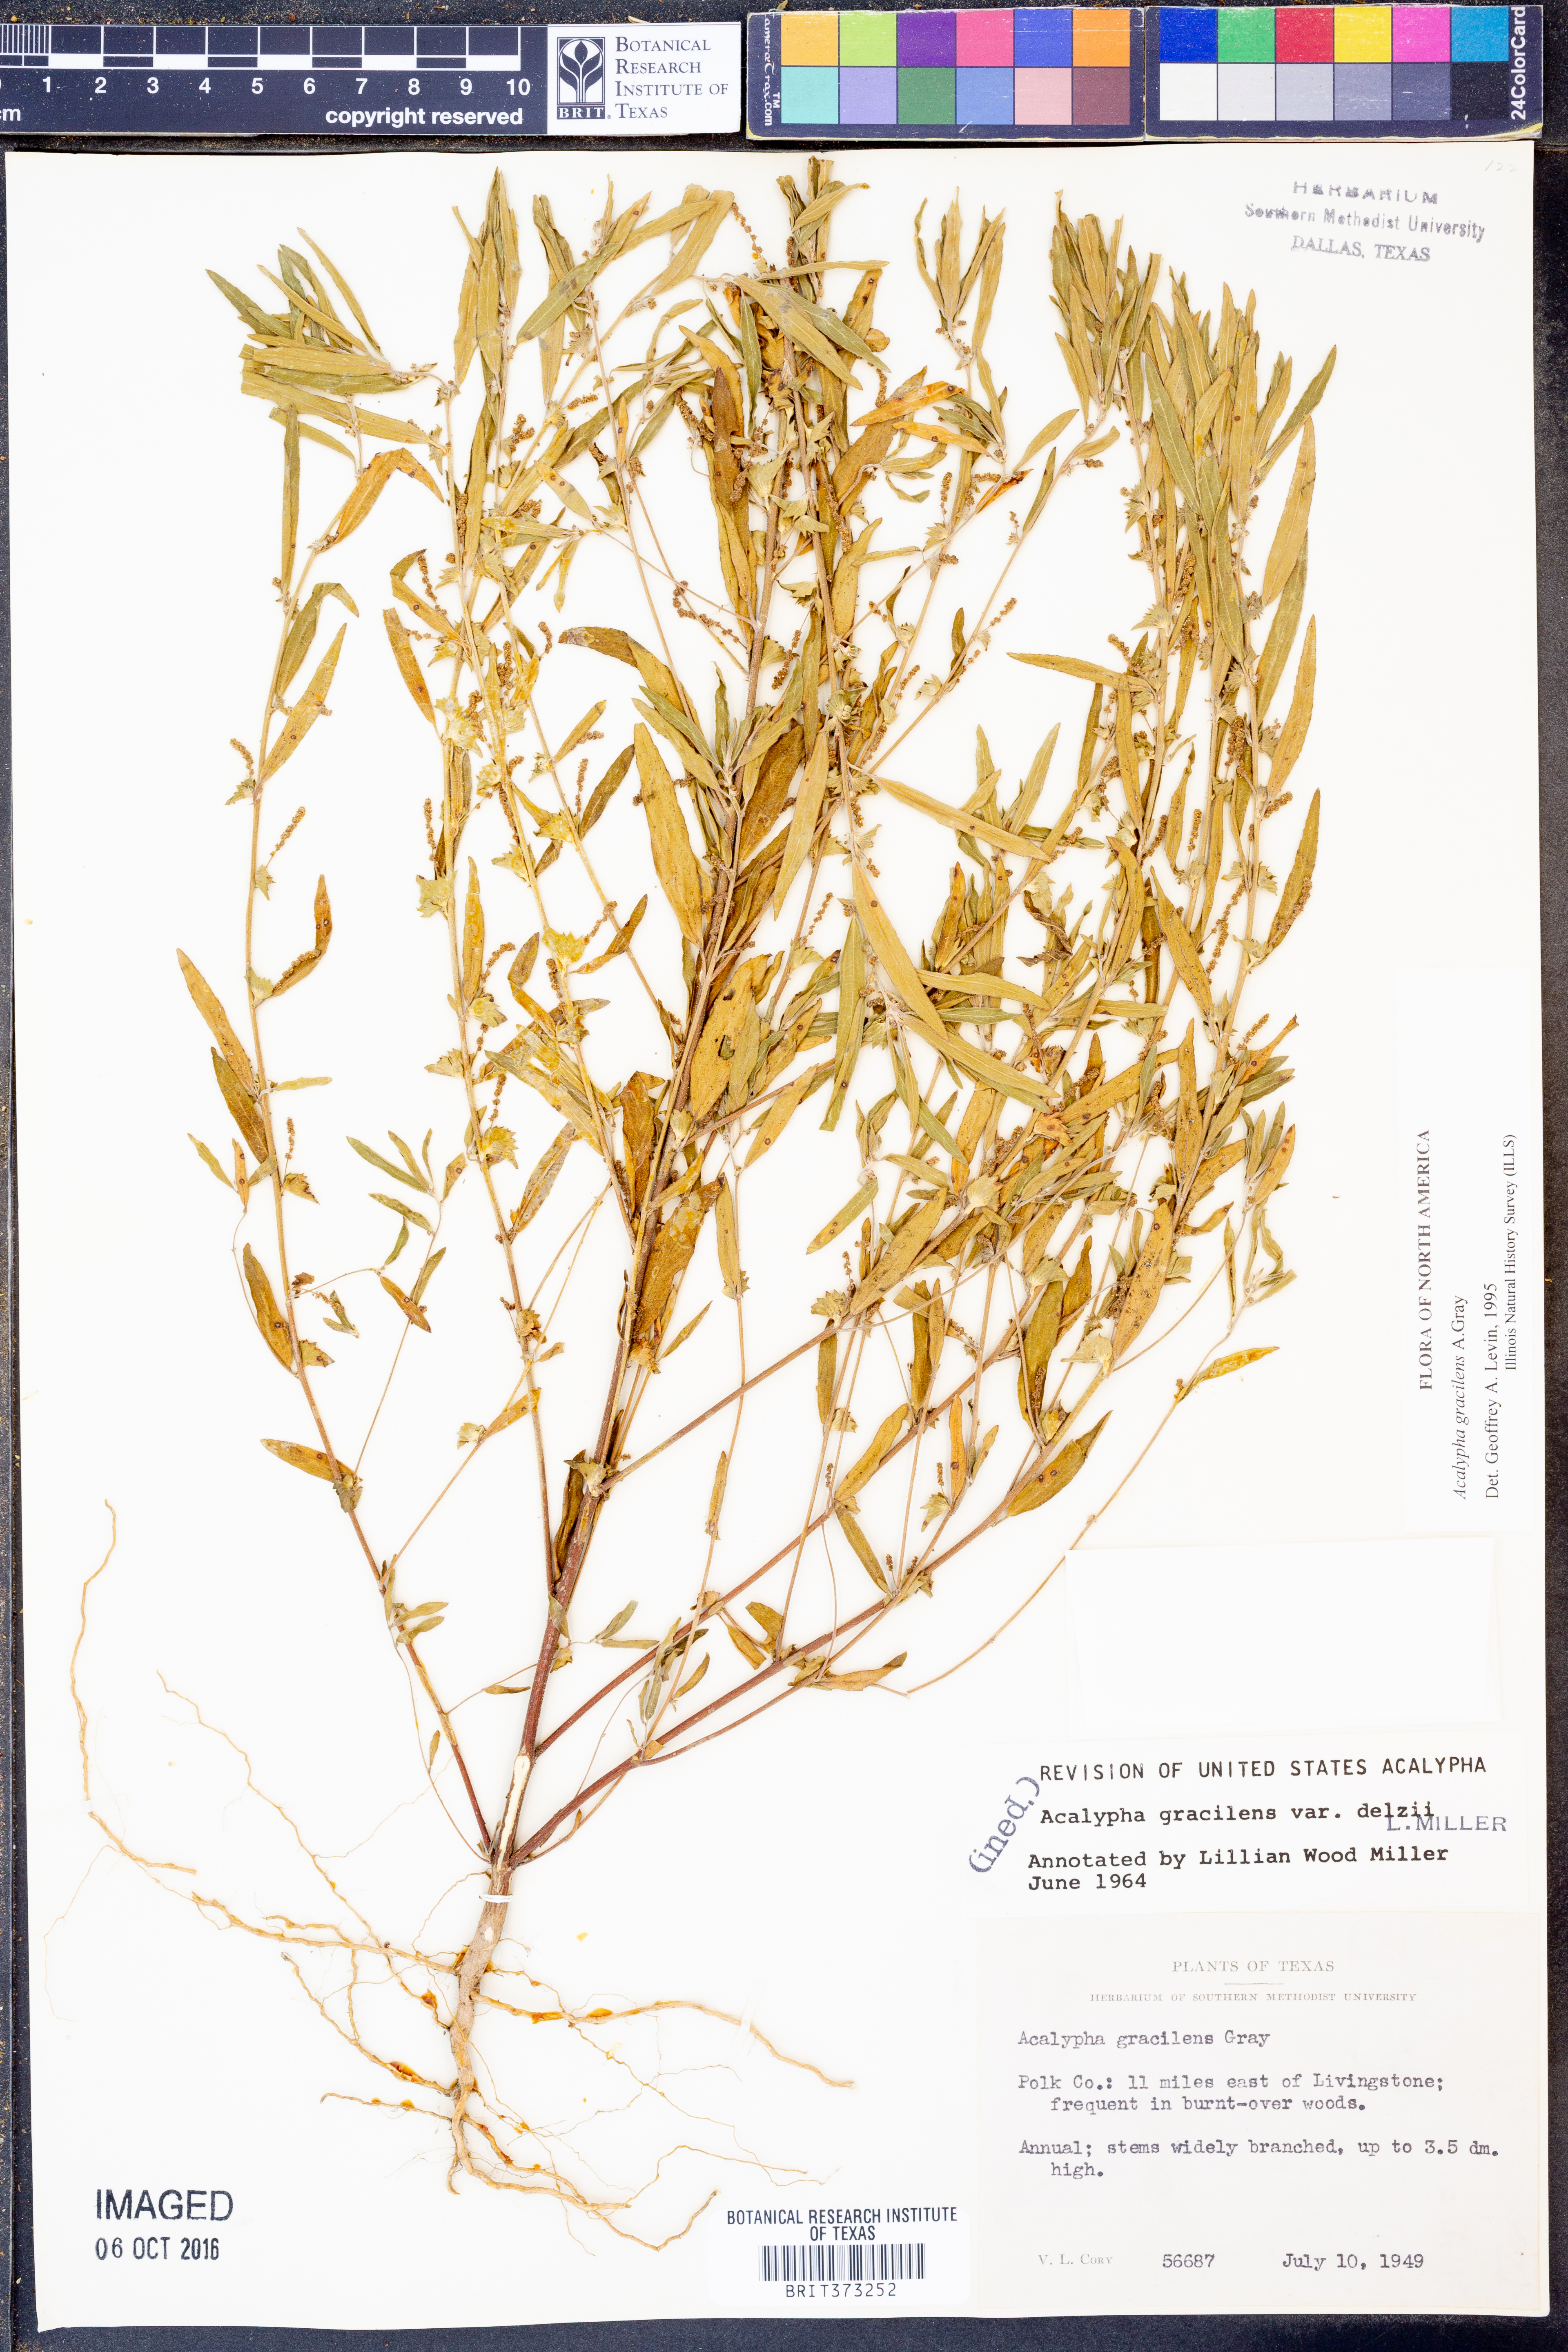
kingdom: Plantae
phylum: Tracheophyta
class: Magnoliopsida
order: Malpighiales
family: Euphorbiaceae
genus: Acalypha
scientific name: Acalypha gracilens
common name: Slender three-seeded mercury
